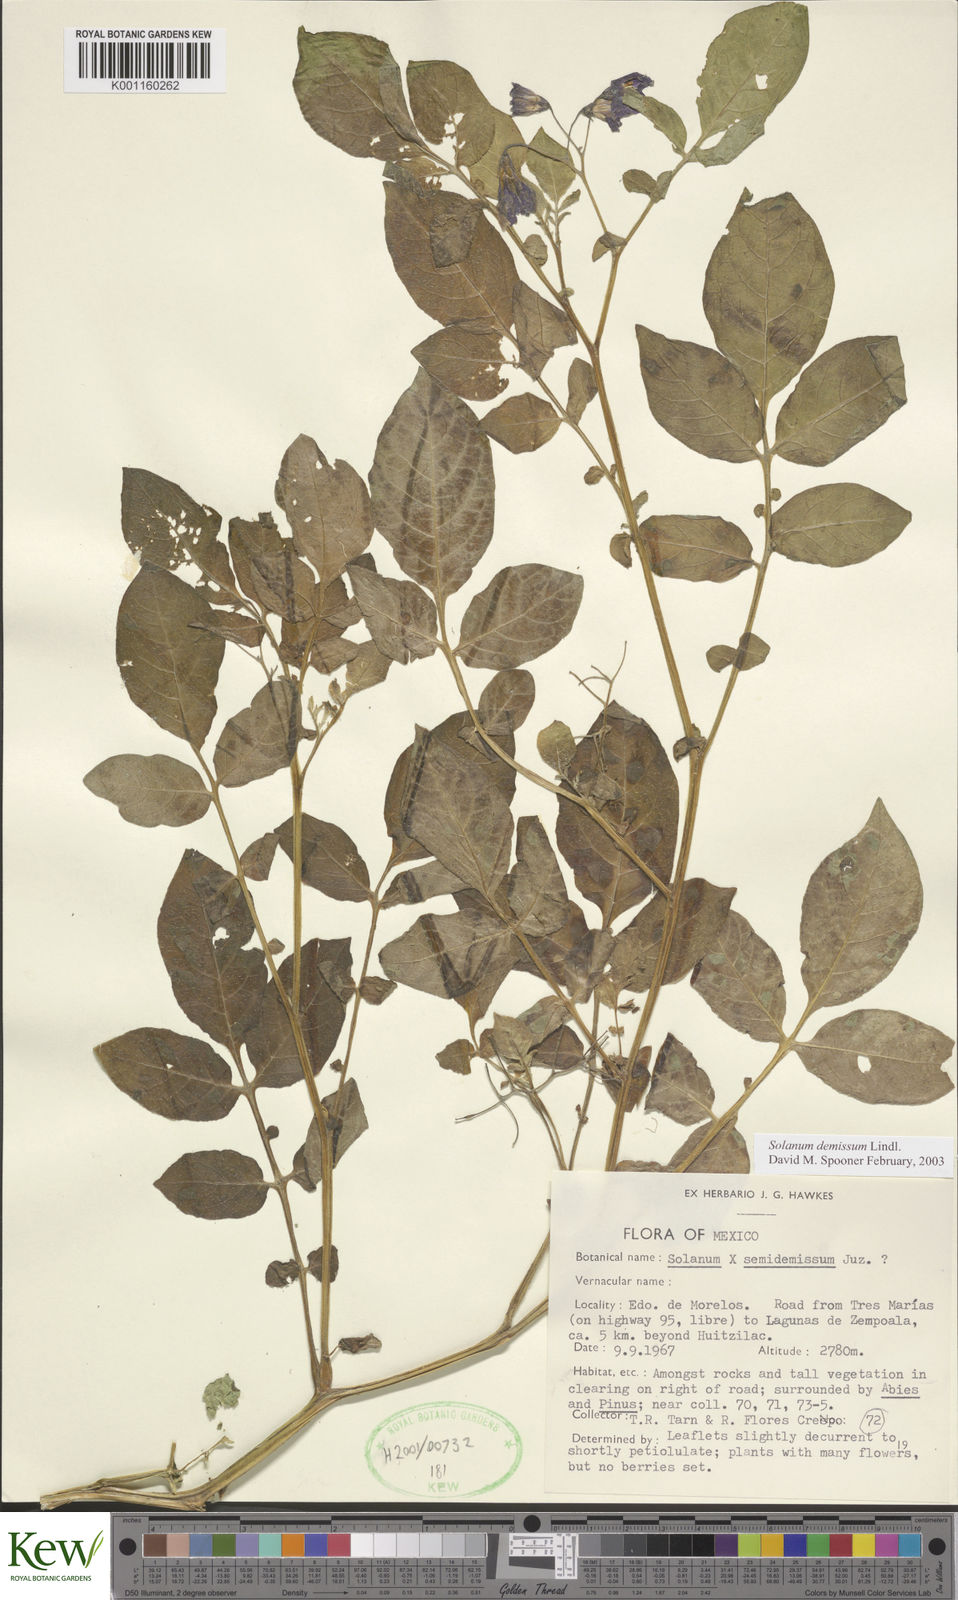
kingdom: Plantae
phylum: Tracheophyta
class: Magnoliopsida
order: Solanales
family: Solanaceae
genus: Solanum
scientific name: Solanum demissum
